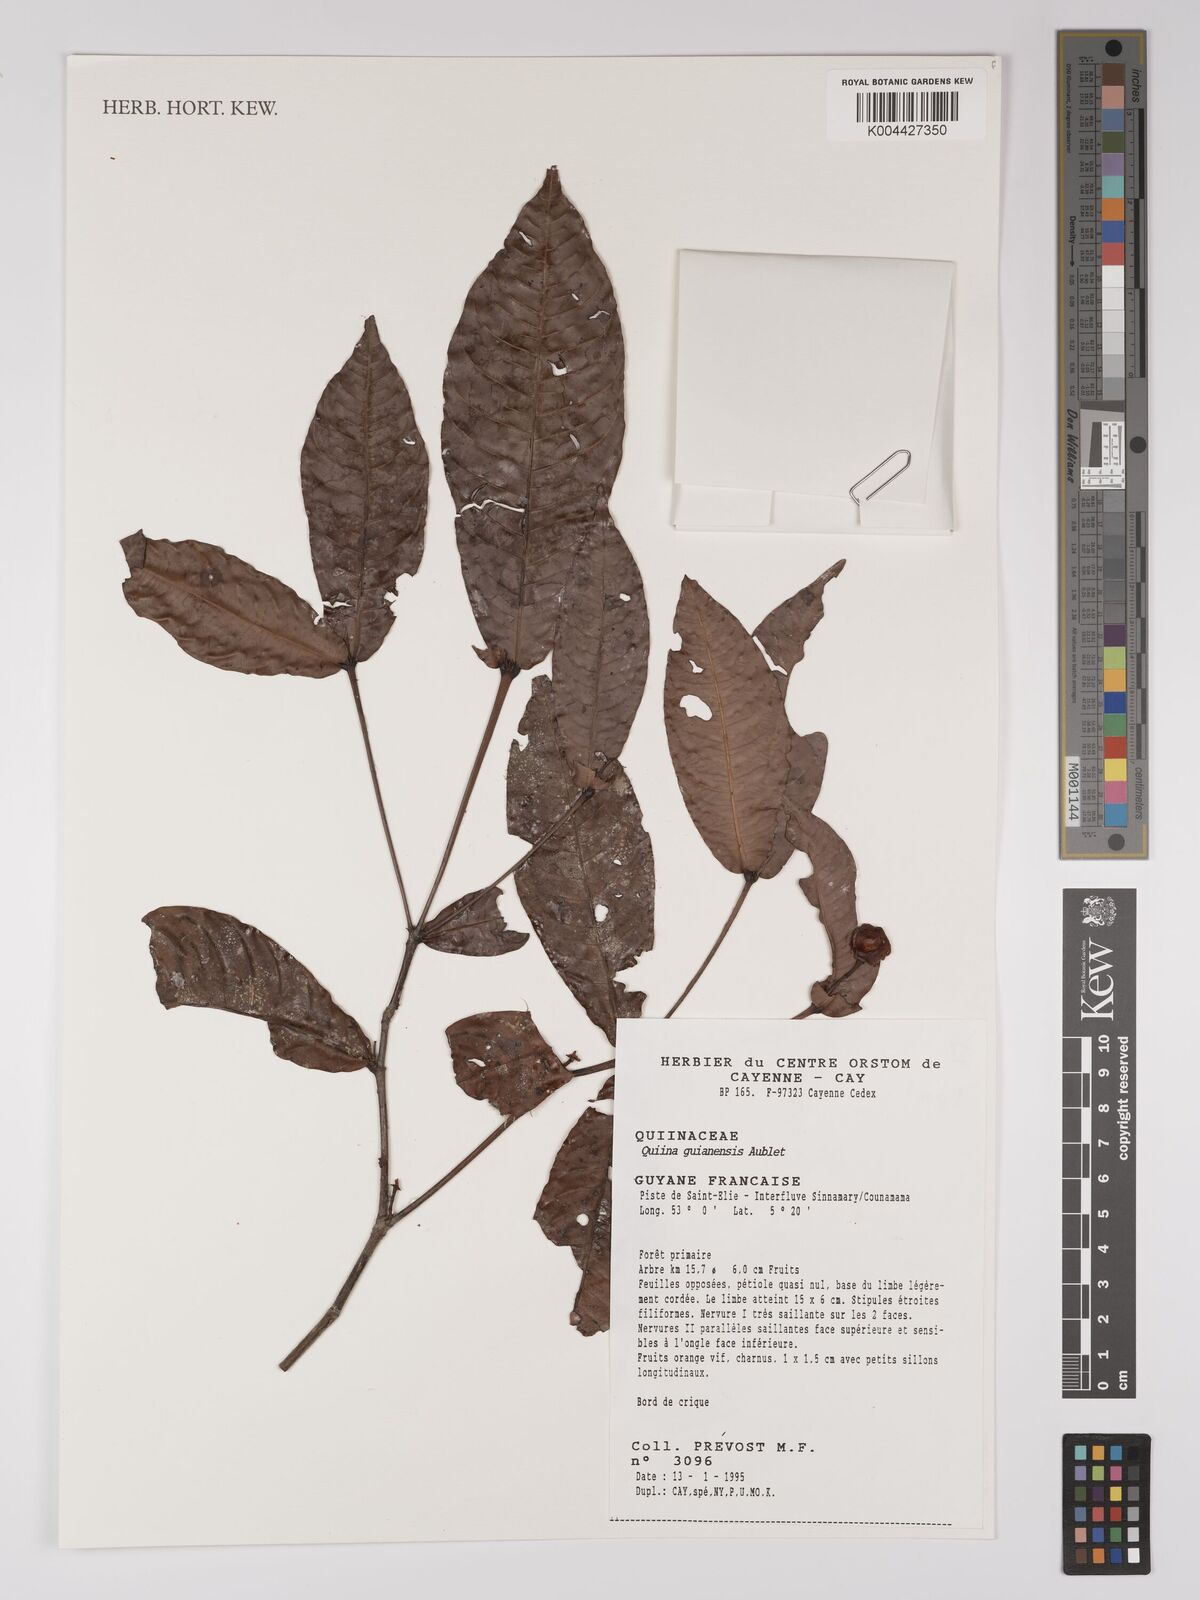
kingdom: Plantae
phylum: Tracheophyta
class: Magnoliopsida
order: Malpighiales
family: Quiinaceae
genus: Quiina
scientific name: Quiina guianensis
